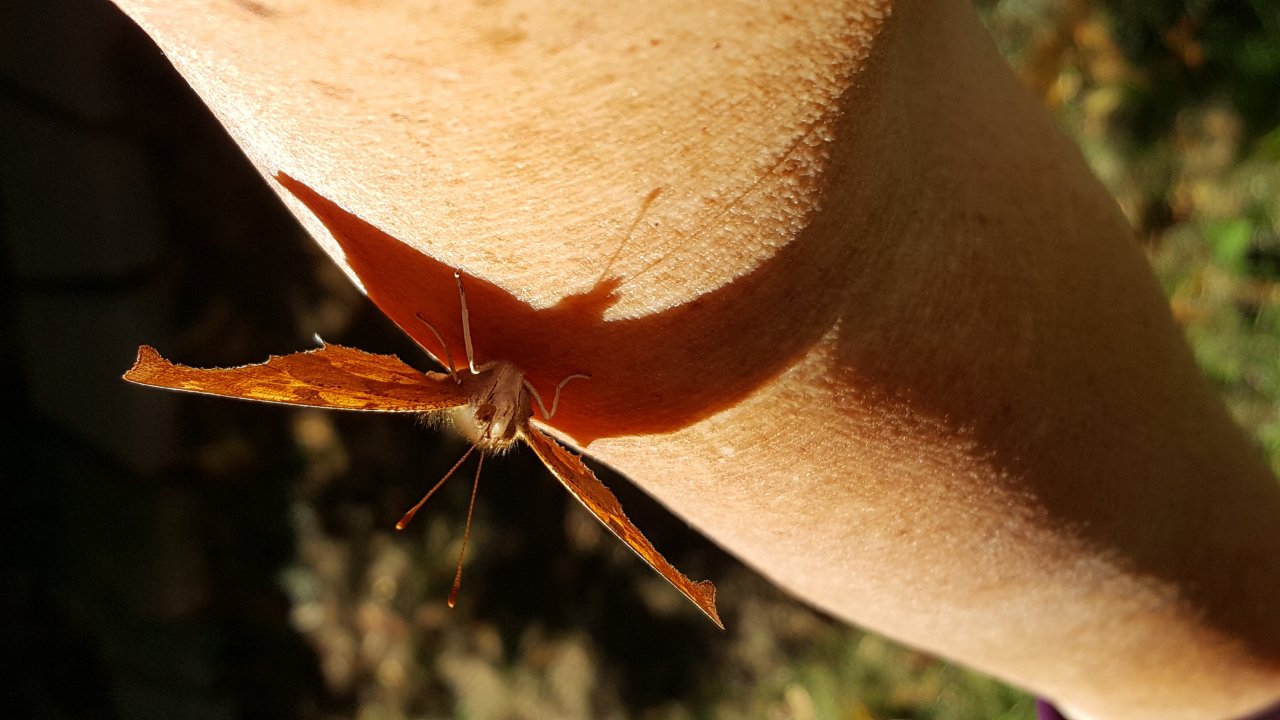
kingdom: Animalia
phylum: Arthropoda
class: Insecta
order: Lepidoptera
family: Nymphalidae
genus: Polygonia
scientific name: Polygonia comma
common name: Eastern Comma
